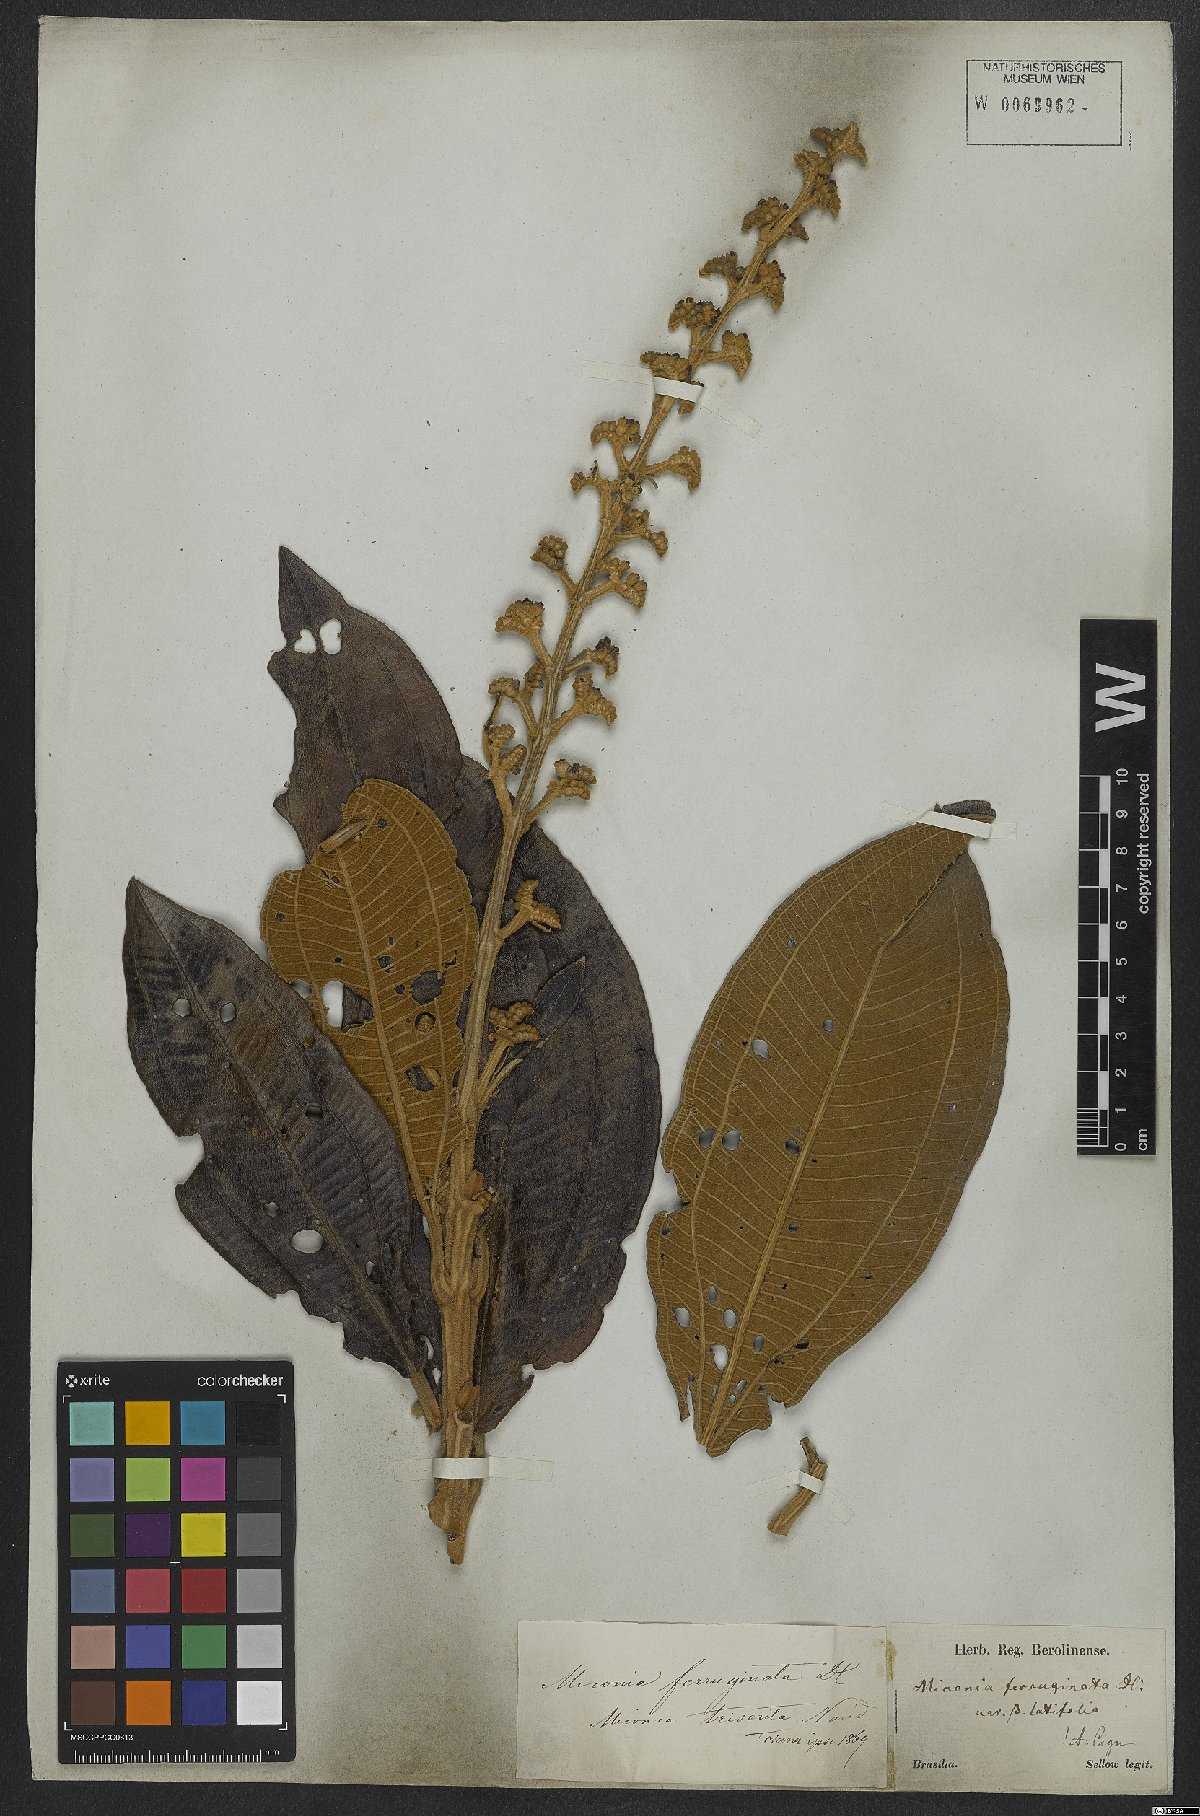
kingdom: Plantae
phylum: Tracheophyta
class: Magnoliopsida
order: Myrtales
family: Melastomataceae
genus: Miconia
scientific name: Miconia ferruginata
